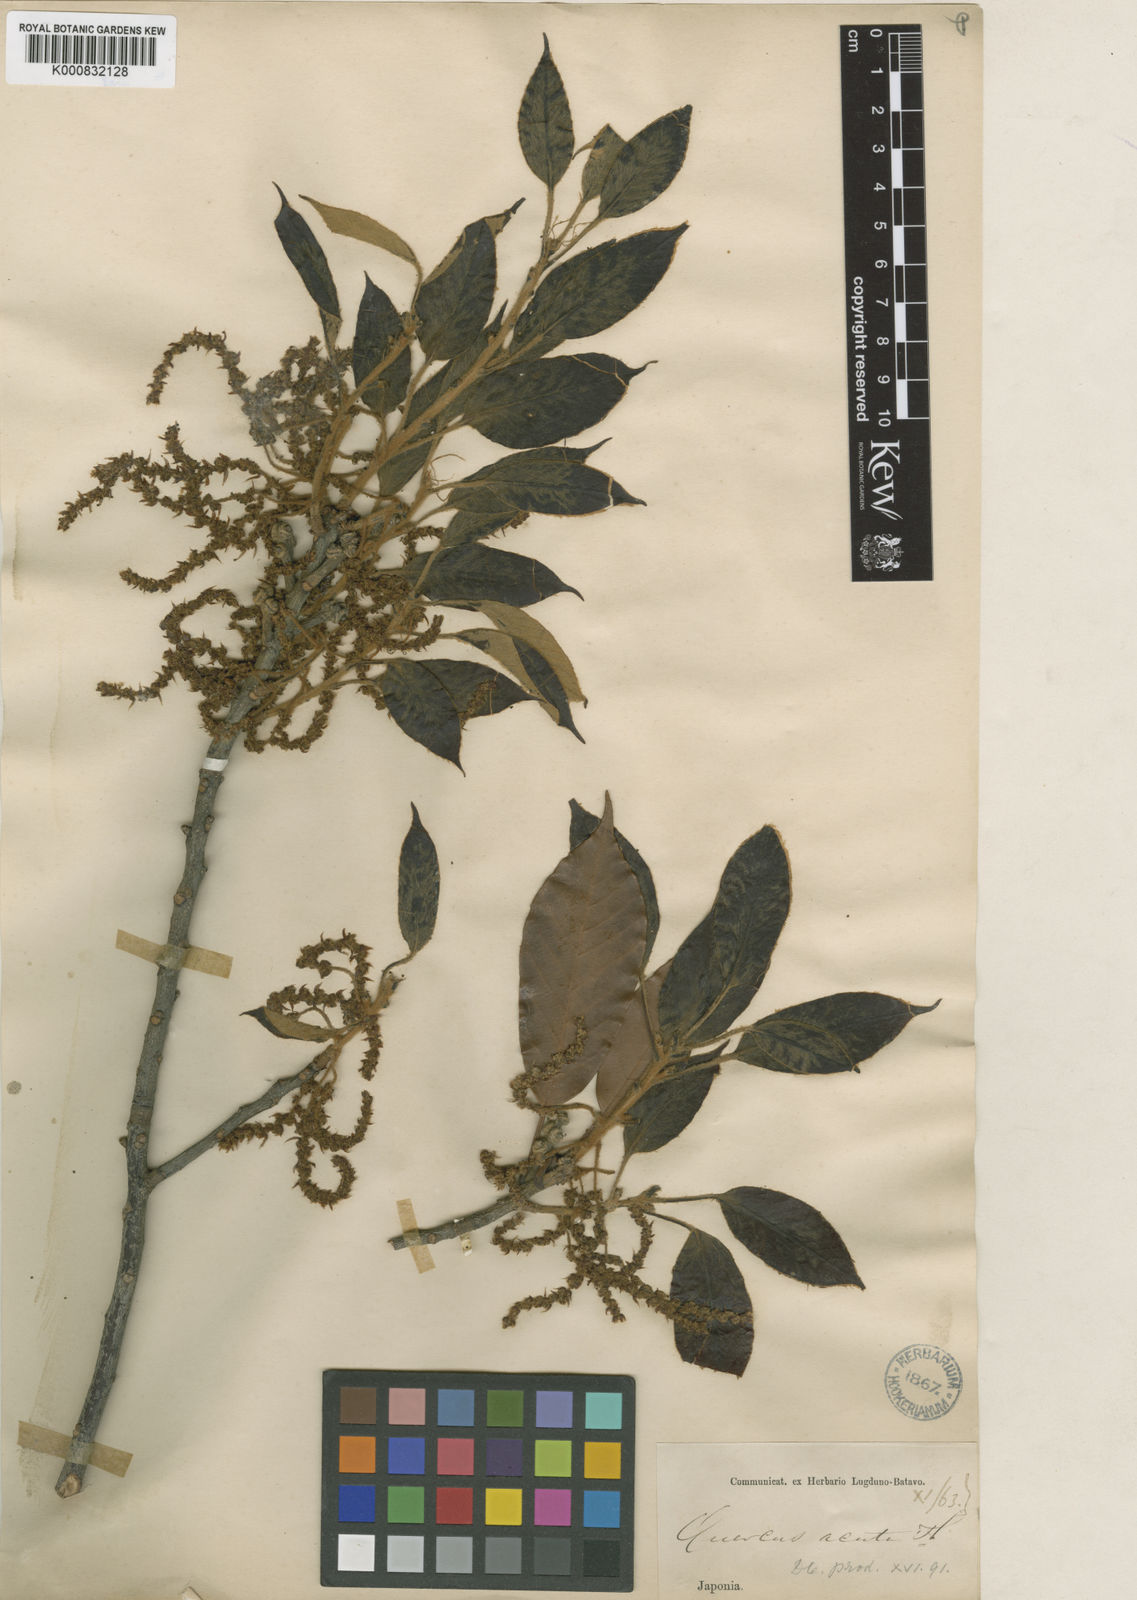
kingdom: Plantae
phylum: Tracheophyta
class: Magnoliopsida
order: Fagales
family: Fagaceae
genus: Quercus
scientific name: Quercus acuta
